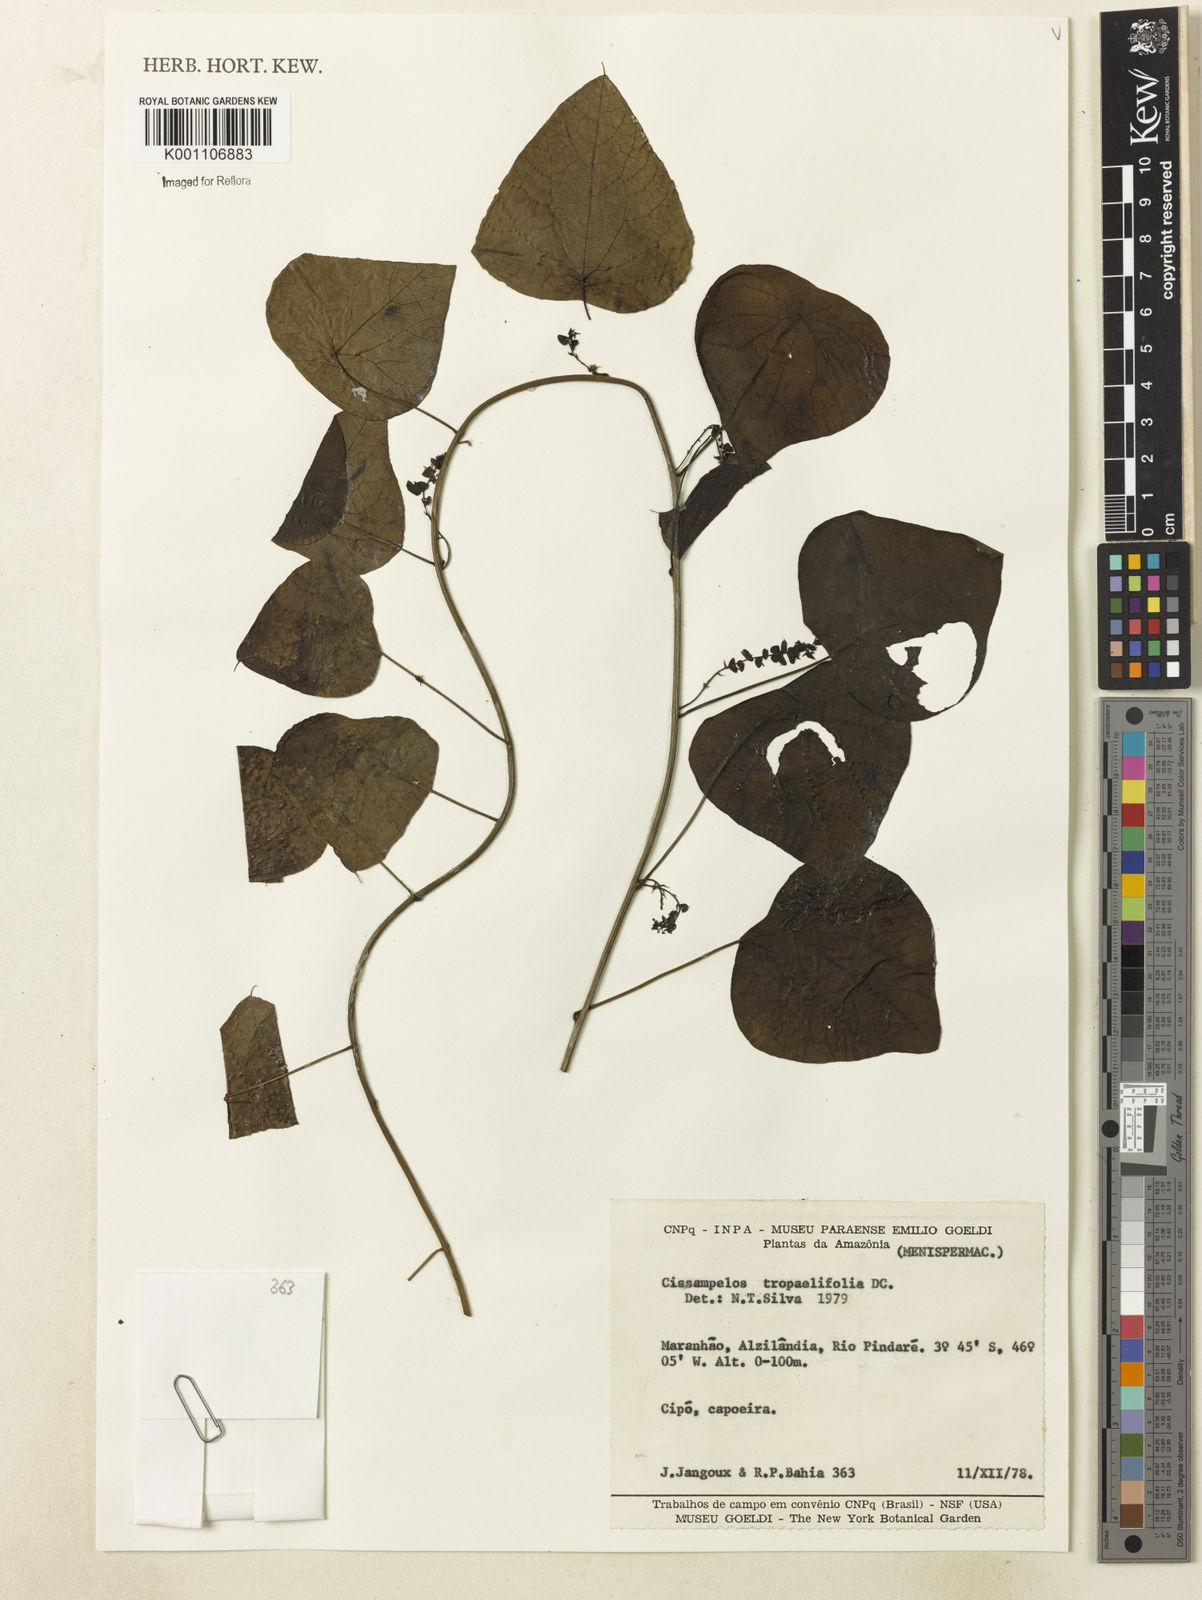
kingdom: Plantae
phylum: Tracheophyta
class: Magnoliopsida
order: Ranunculales
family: Menispermaceae
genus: Cissampelos
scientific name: Cissampelos tropaeolifolia
